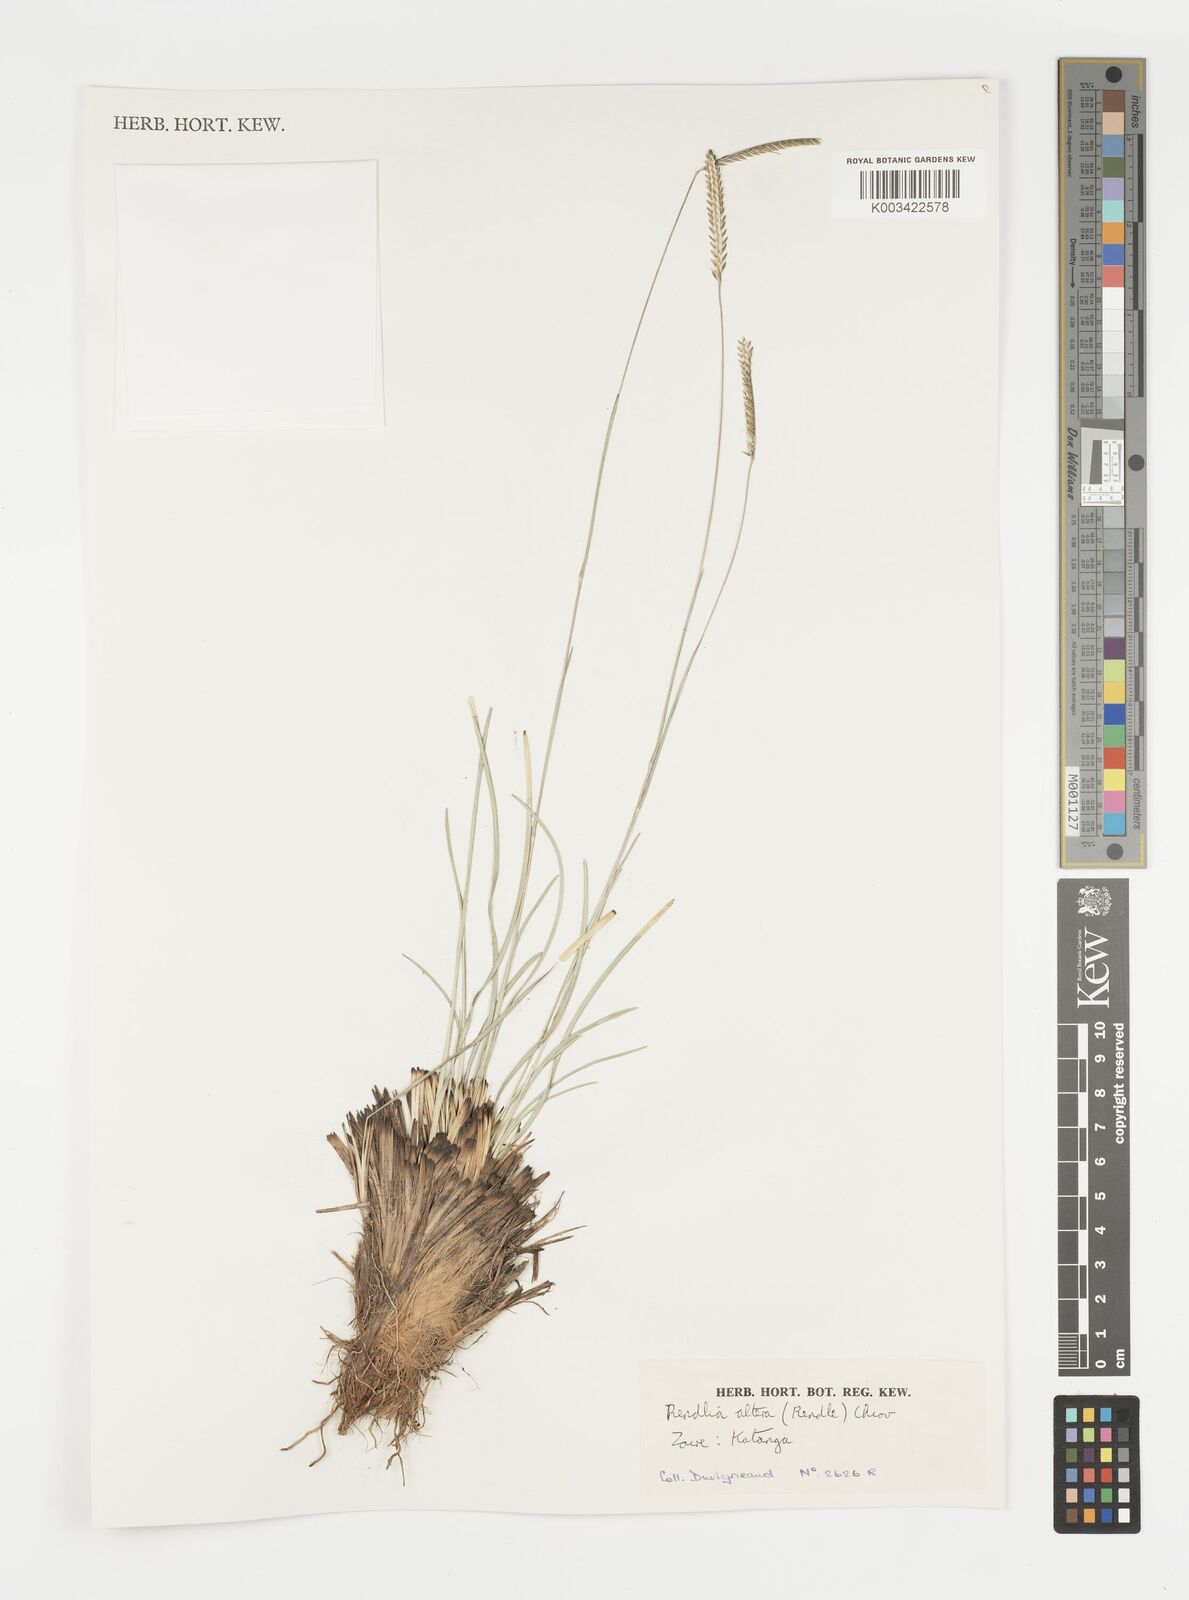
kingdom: Plantae
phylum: Tracheophyta
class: Liliopsida
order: Poales
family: Poaceae
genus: Microchloa
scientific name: Microchloa altera
